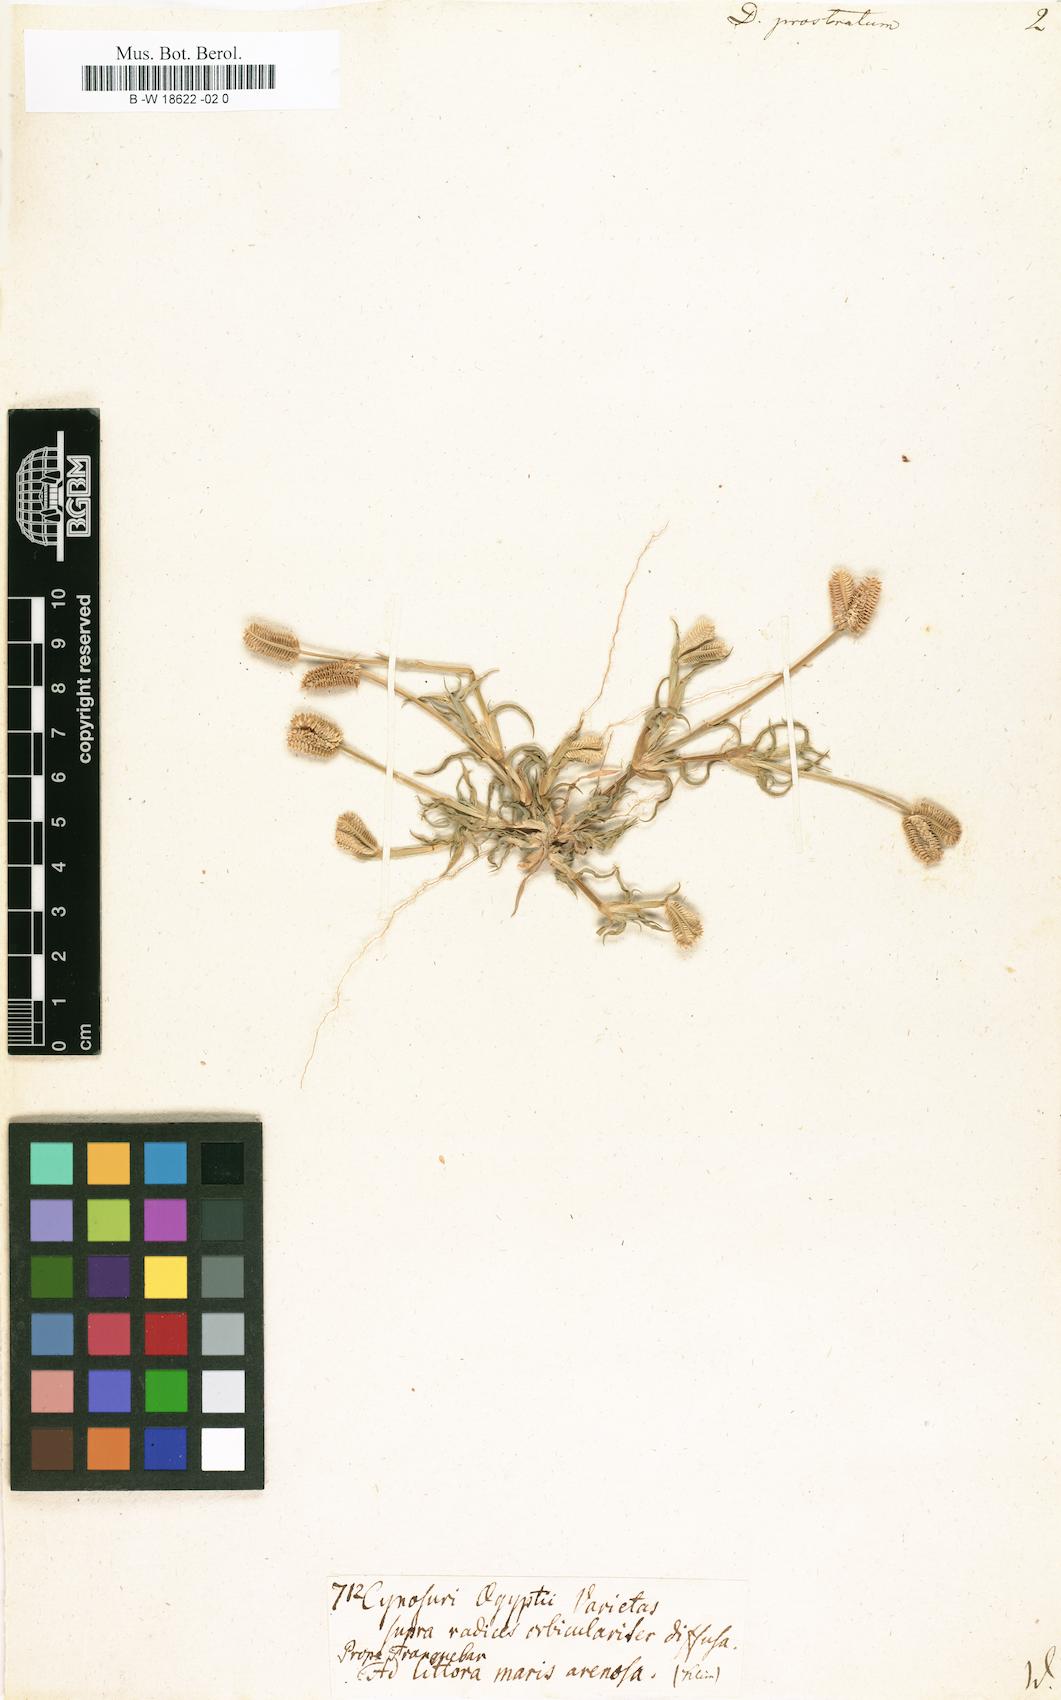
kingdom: Plantae
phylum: Tracheophyta
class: Liliopsida
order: Poales
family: Poaceae
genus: Dactyloctenium
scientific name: Dactyloctenium aegyptium
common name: Egyptian grass
